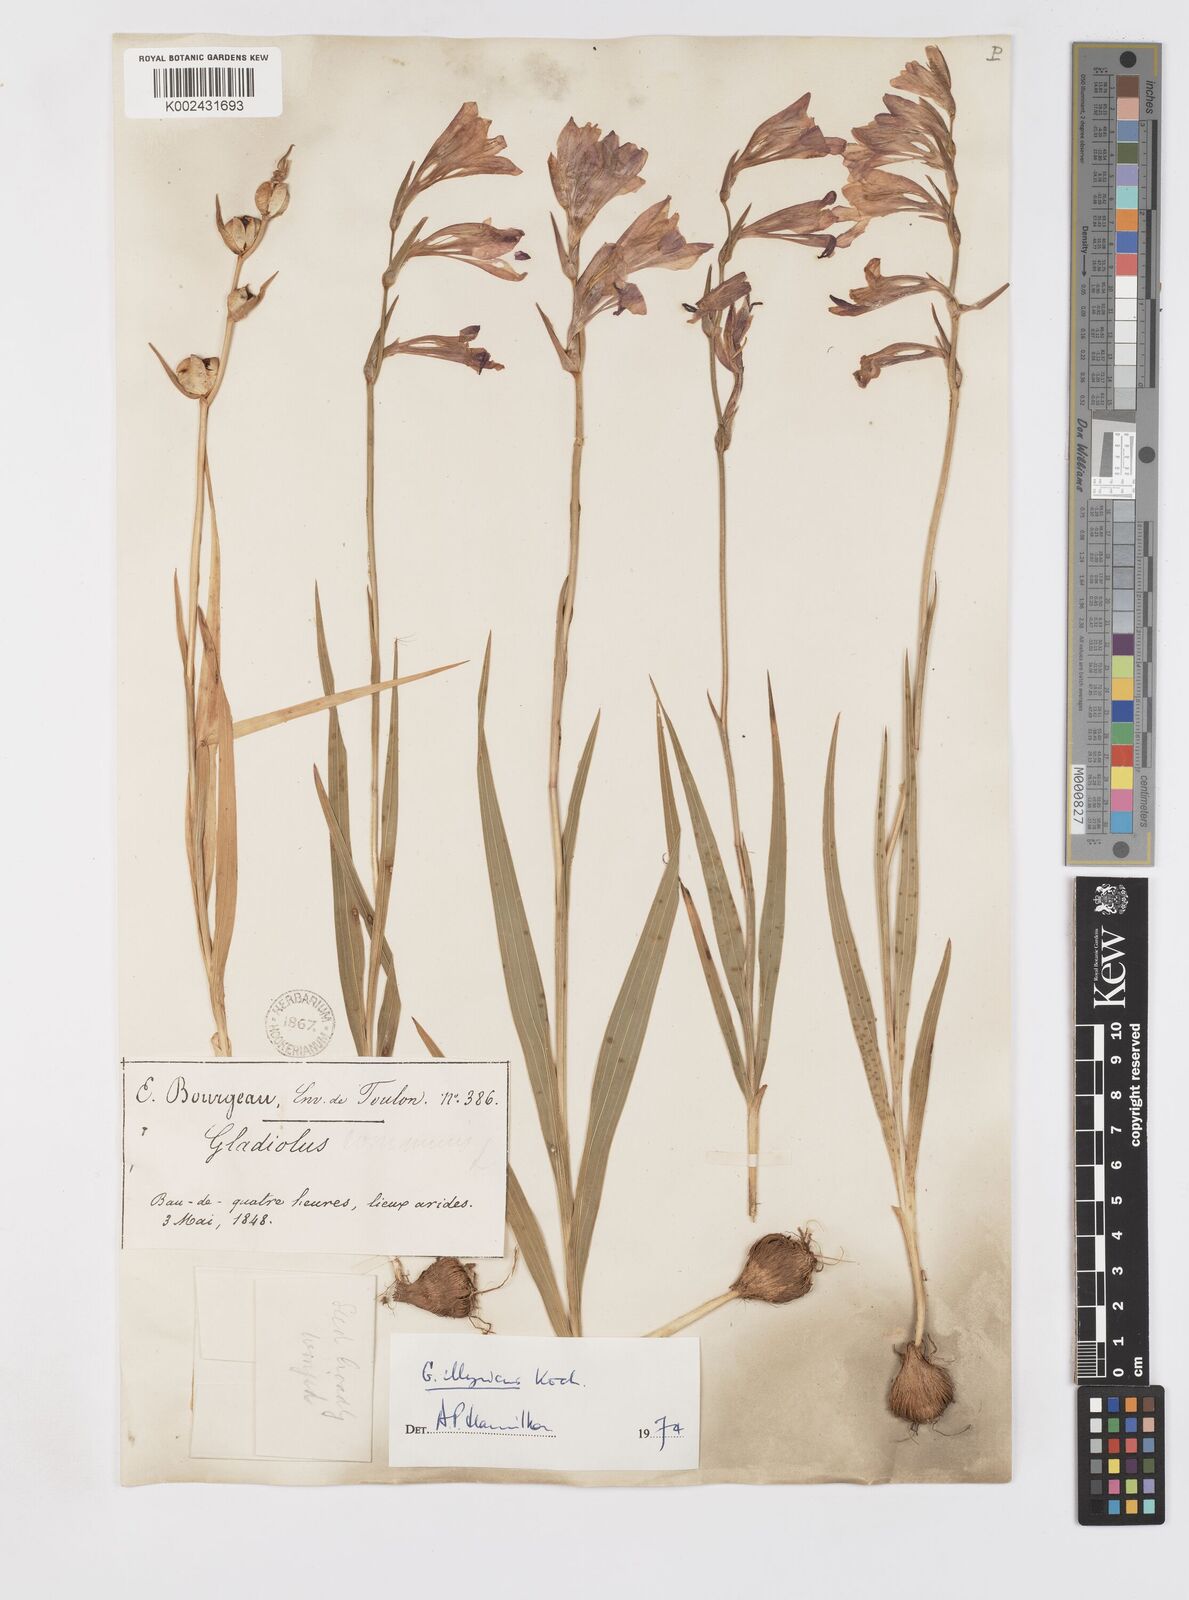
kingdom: Plantae
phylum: Tracheophyta
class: Liliopsida
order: Asparagales
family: Iridaceae
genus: Gladiolus
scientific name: Gladiolus illyricus
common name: Wild gladiolus
